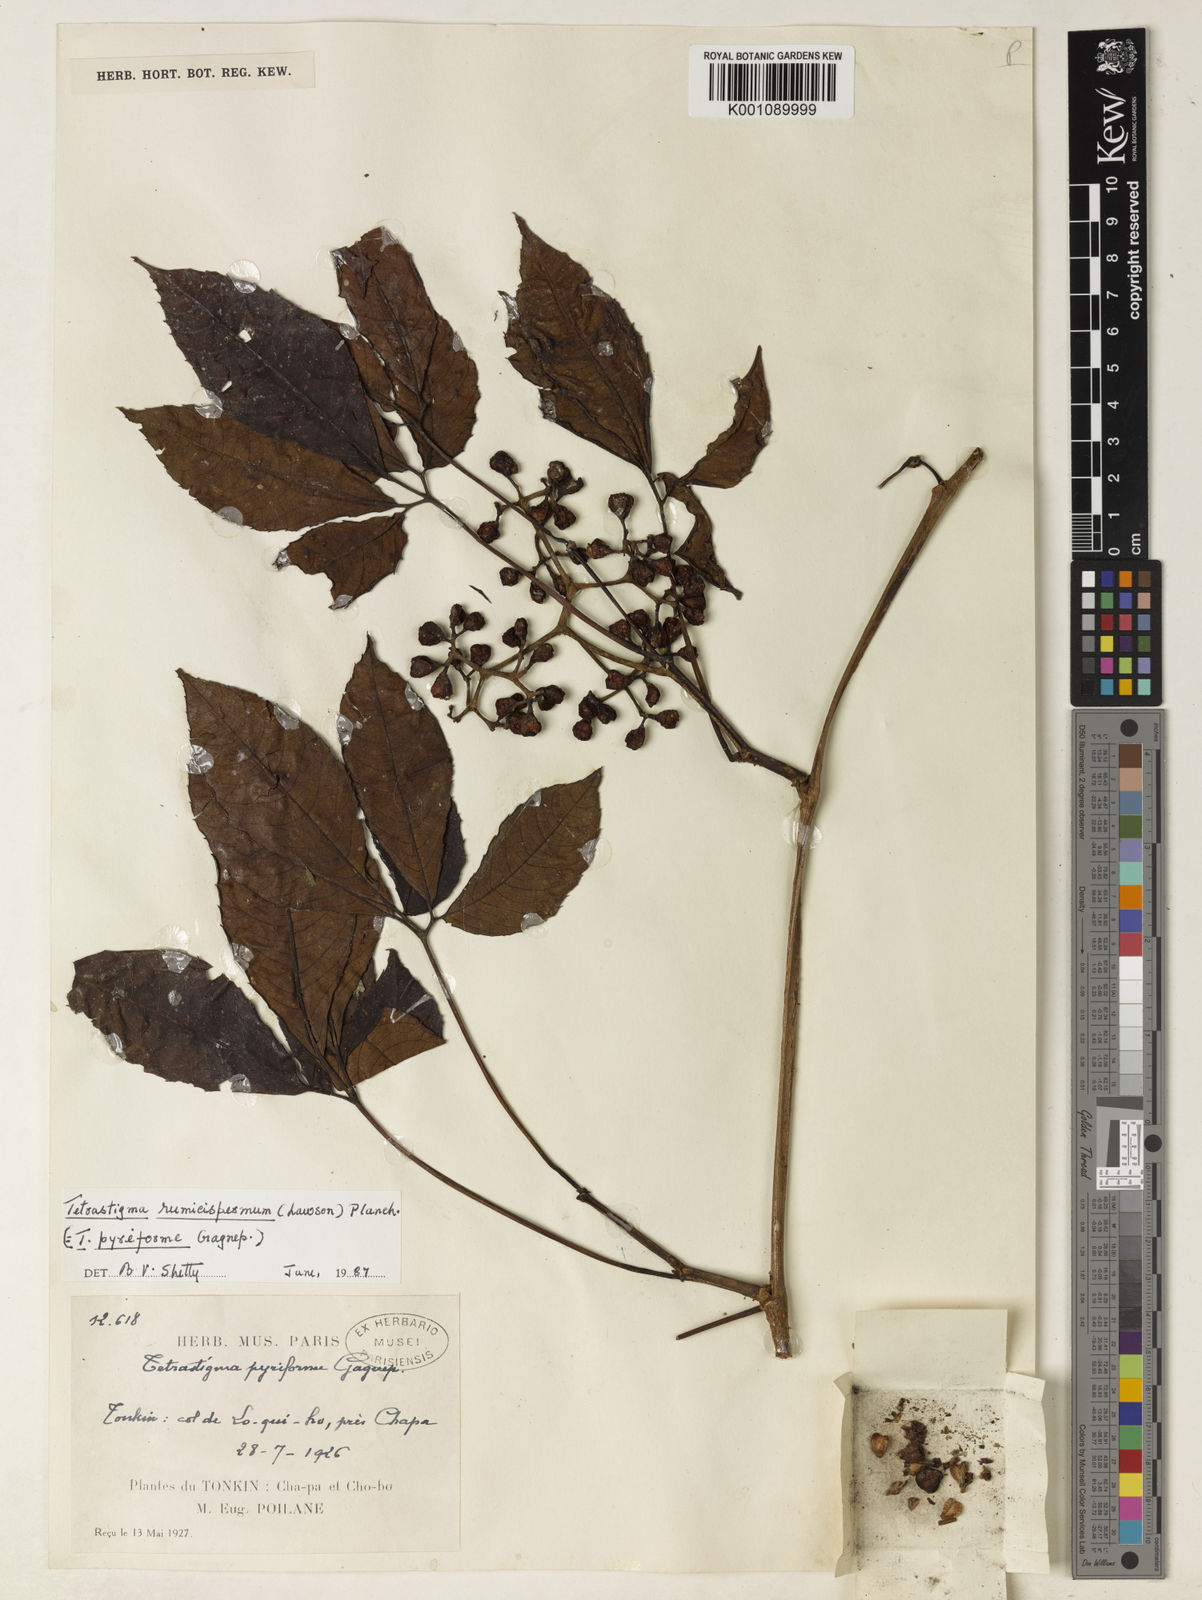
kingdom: Plantae
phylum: Tracheophyta
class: Magnoliopsida
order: Vitales
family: Vitaceae
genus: Tetrastigma
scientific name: Tetrastigma rumicispermum
